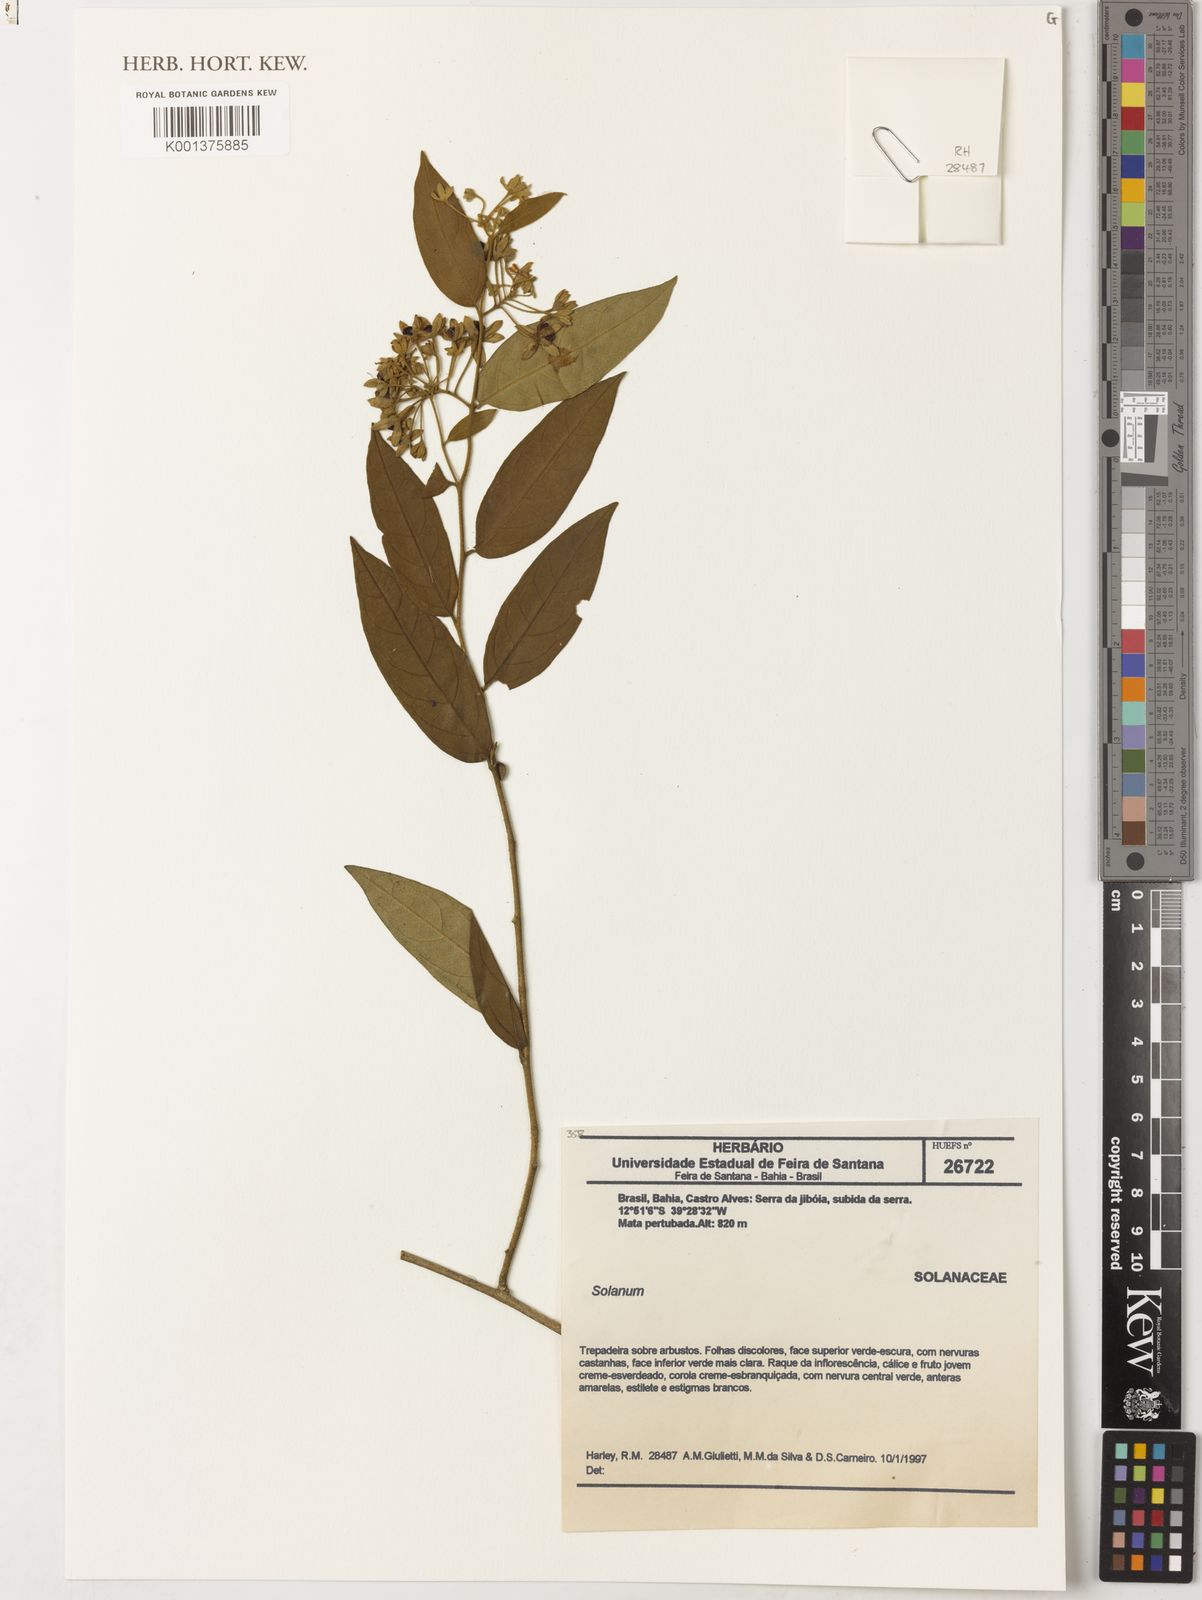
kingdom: Plantae
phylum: Tracheophyta
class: Magnoliopsida
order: Solanales
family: Solanaceae
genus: Solanum
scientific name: Solanum
